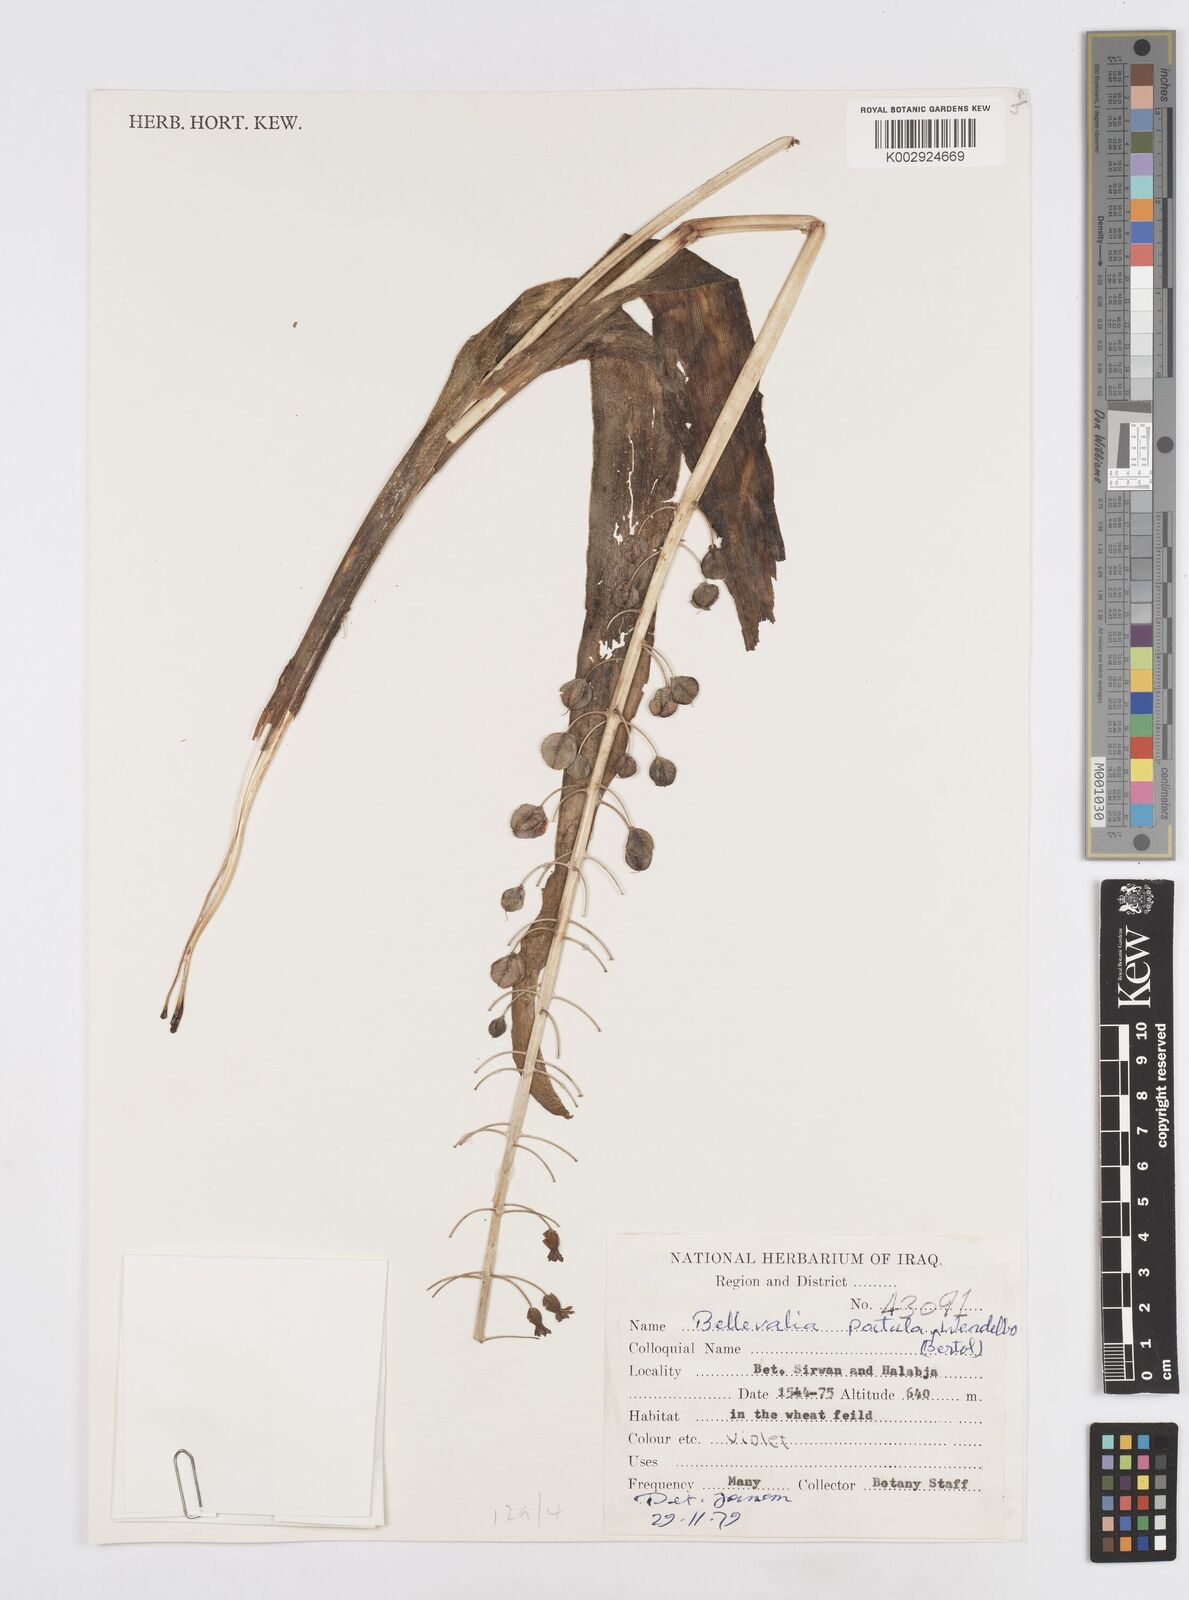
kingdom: Plantae
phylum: Tracheophyta
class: Liliopsida
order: Asparagales
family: Asparagaceae
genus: Bellevalia
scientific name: Bellevalia
